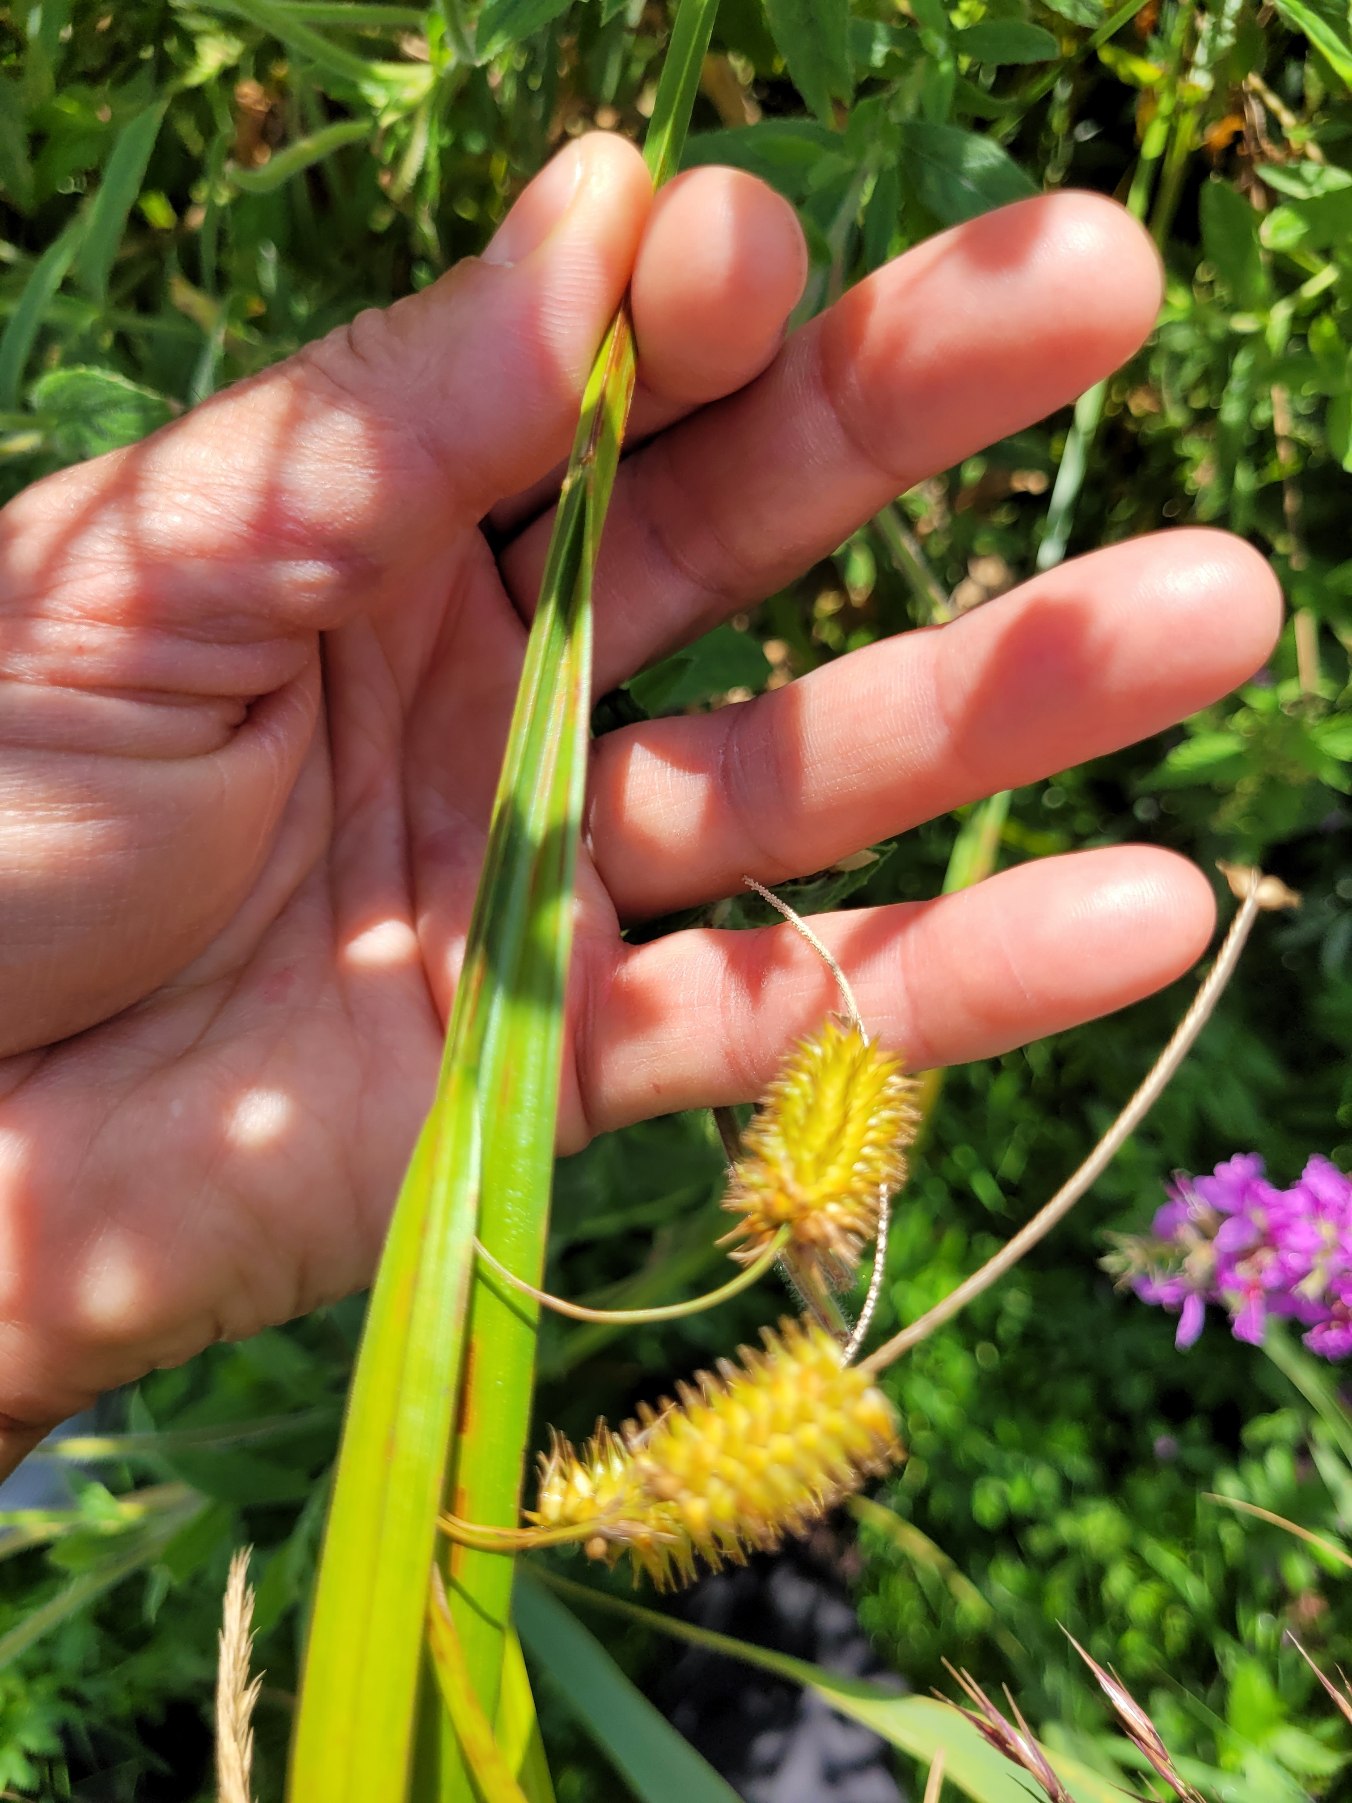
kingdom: Plantae
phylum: Tracheophyta
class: Liliopsida
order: Poales
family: Cyperaceae
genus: Carex
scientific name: Carex pseudocyperus
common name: Knippe-star
